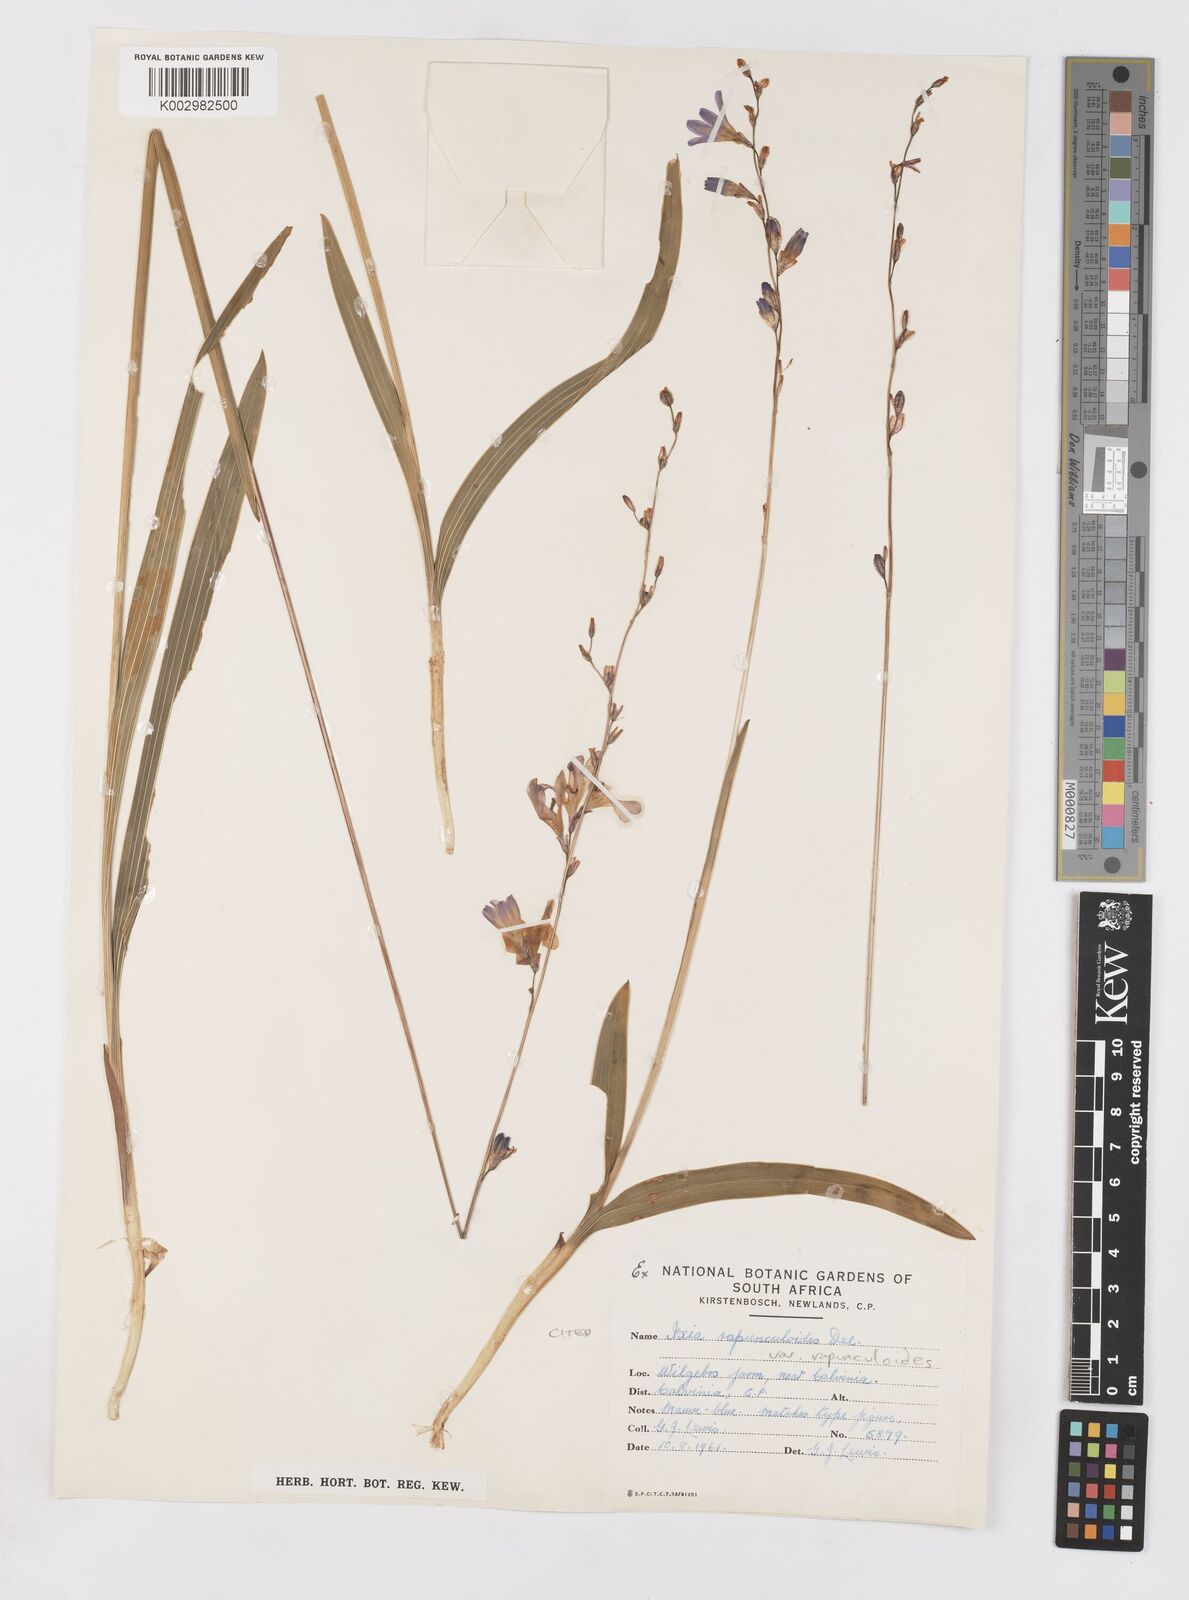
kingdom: Plantae
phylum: Tracheophyta
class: Liliopsida
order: Asparagales
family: Iridaceae
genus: Ixia
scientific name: Ixia rapunculoides
